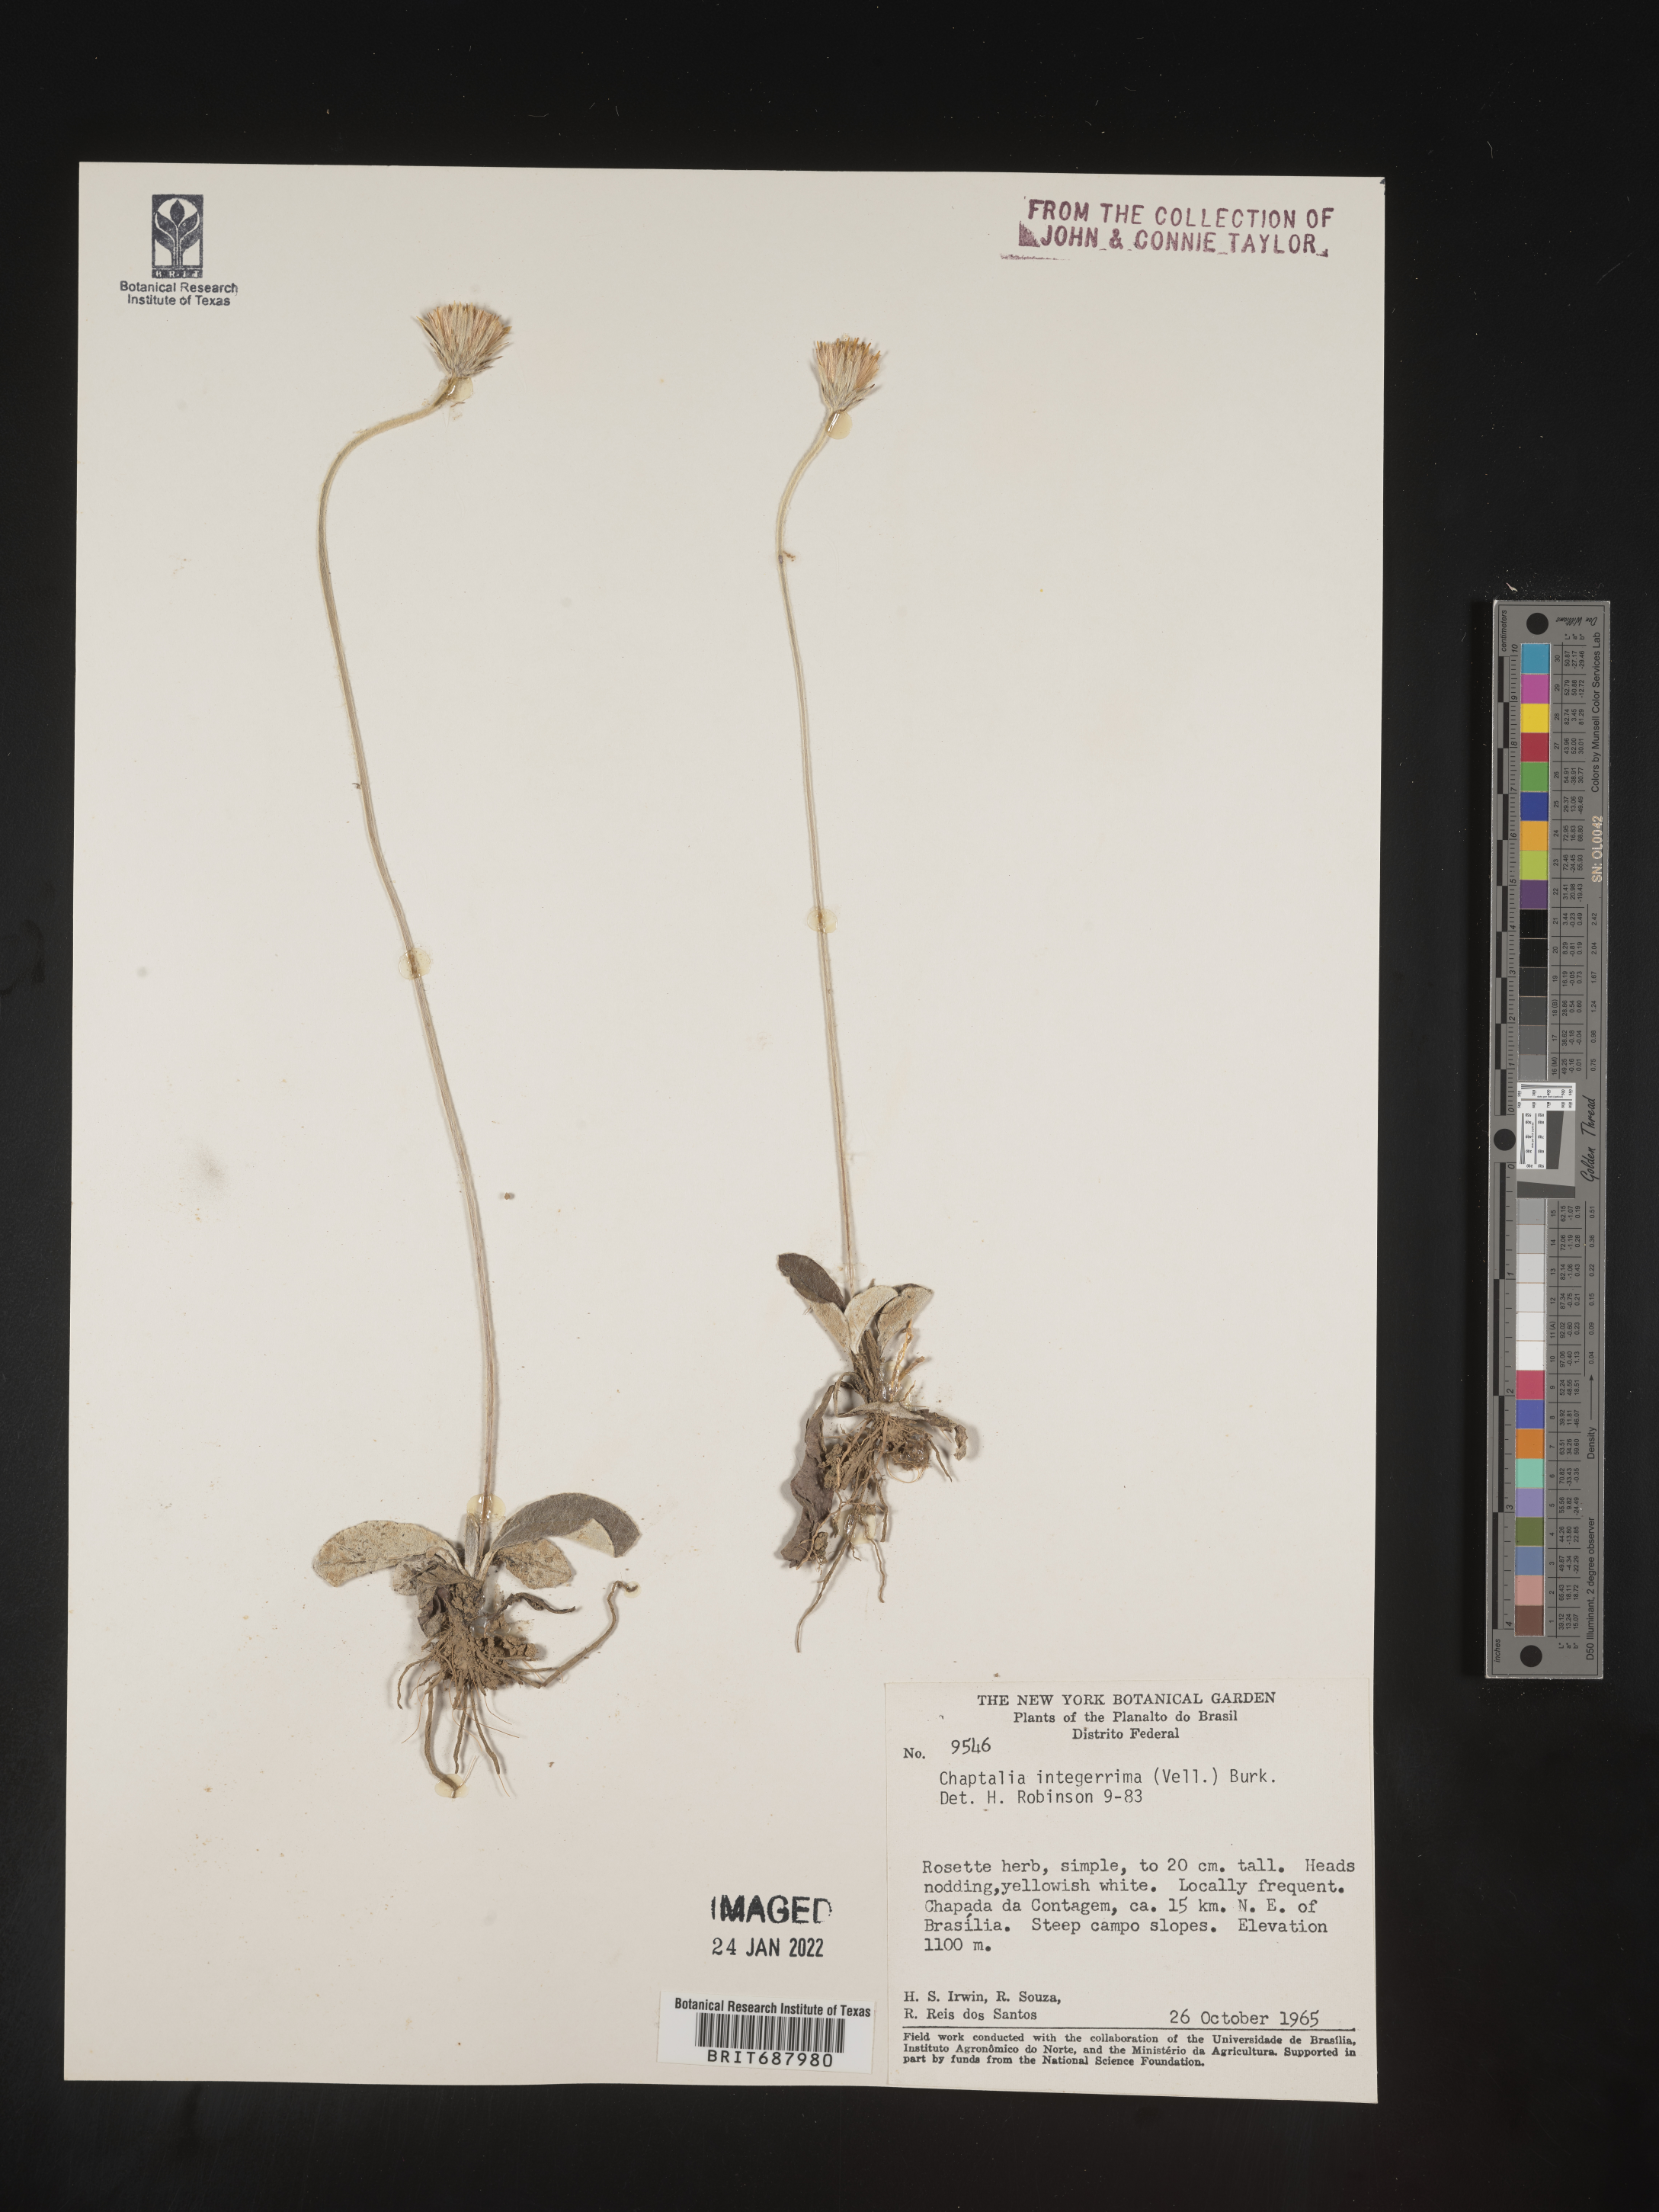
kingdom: Plantae
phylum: Tracheophyta
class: Magnoliopsida
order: Asterales
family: Asteraceae
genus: Chaptalia
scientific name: Chaptalia
